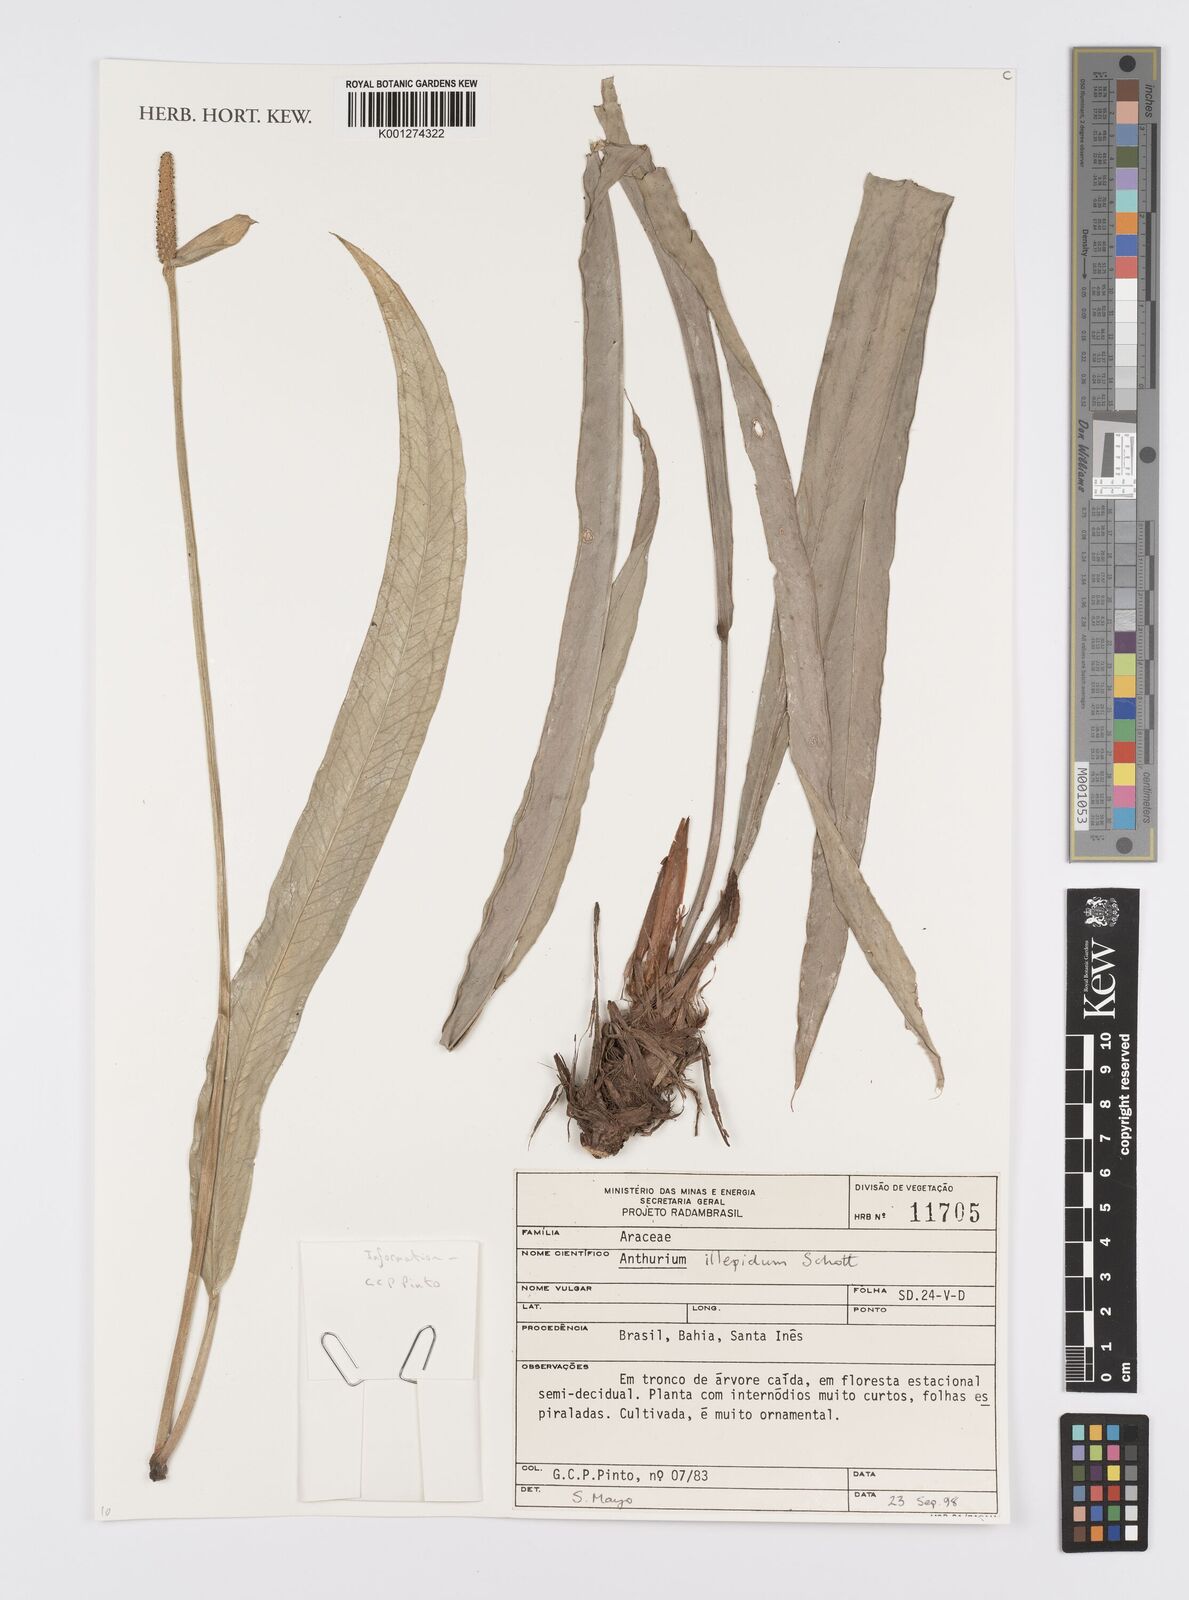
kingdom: Plantae
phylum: Tracheophyta
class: Liliopsida
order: Alismatales
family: Araceae
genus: Anthurium
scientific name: Anthurium illepidum
